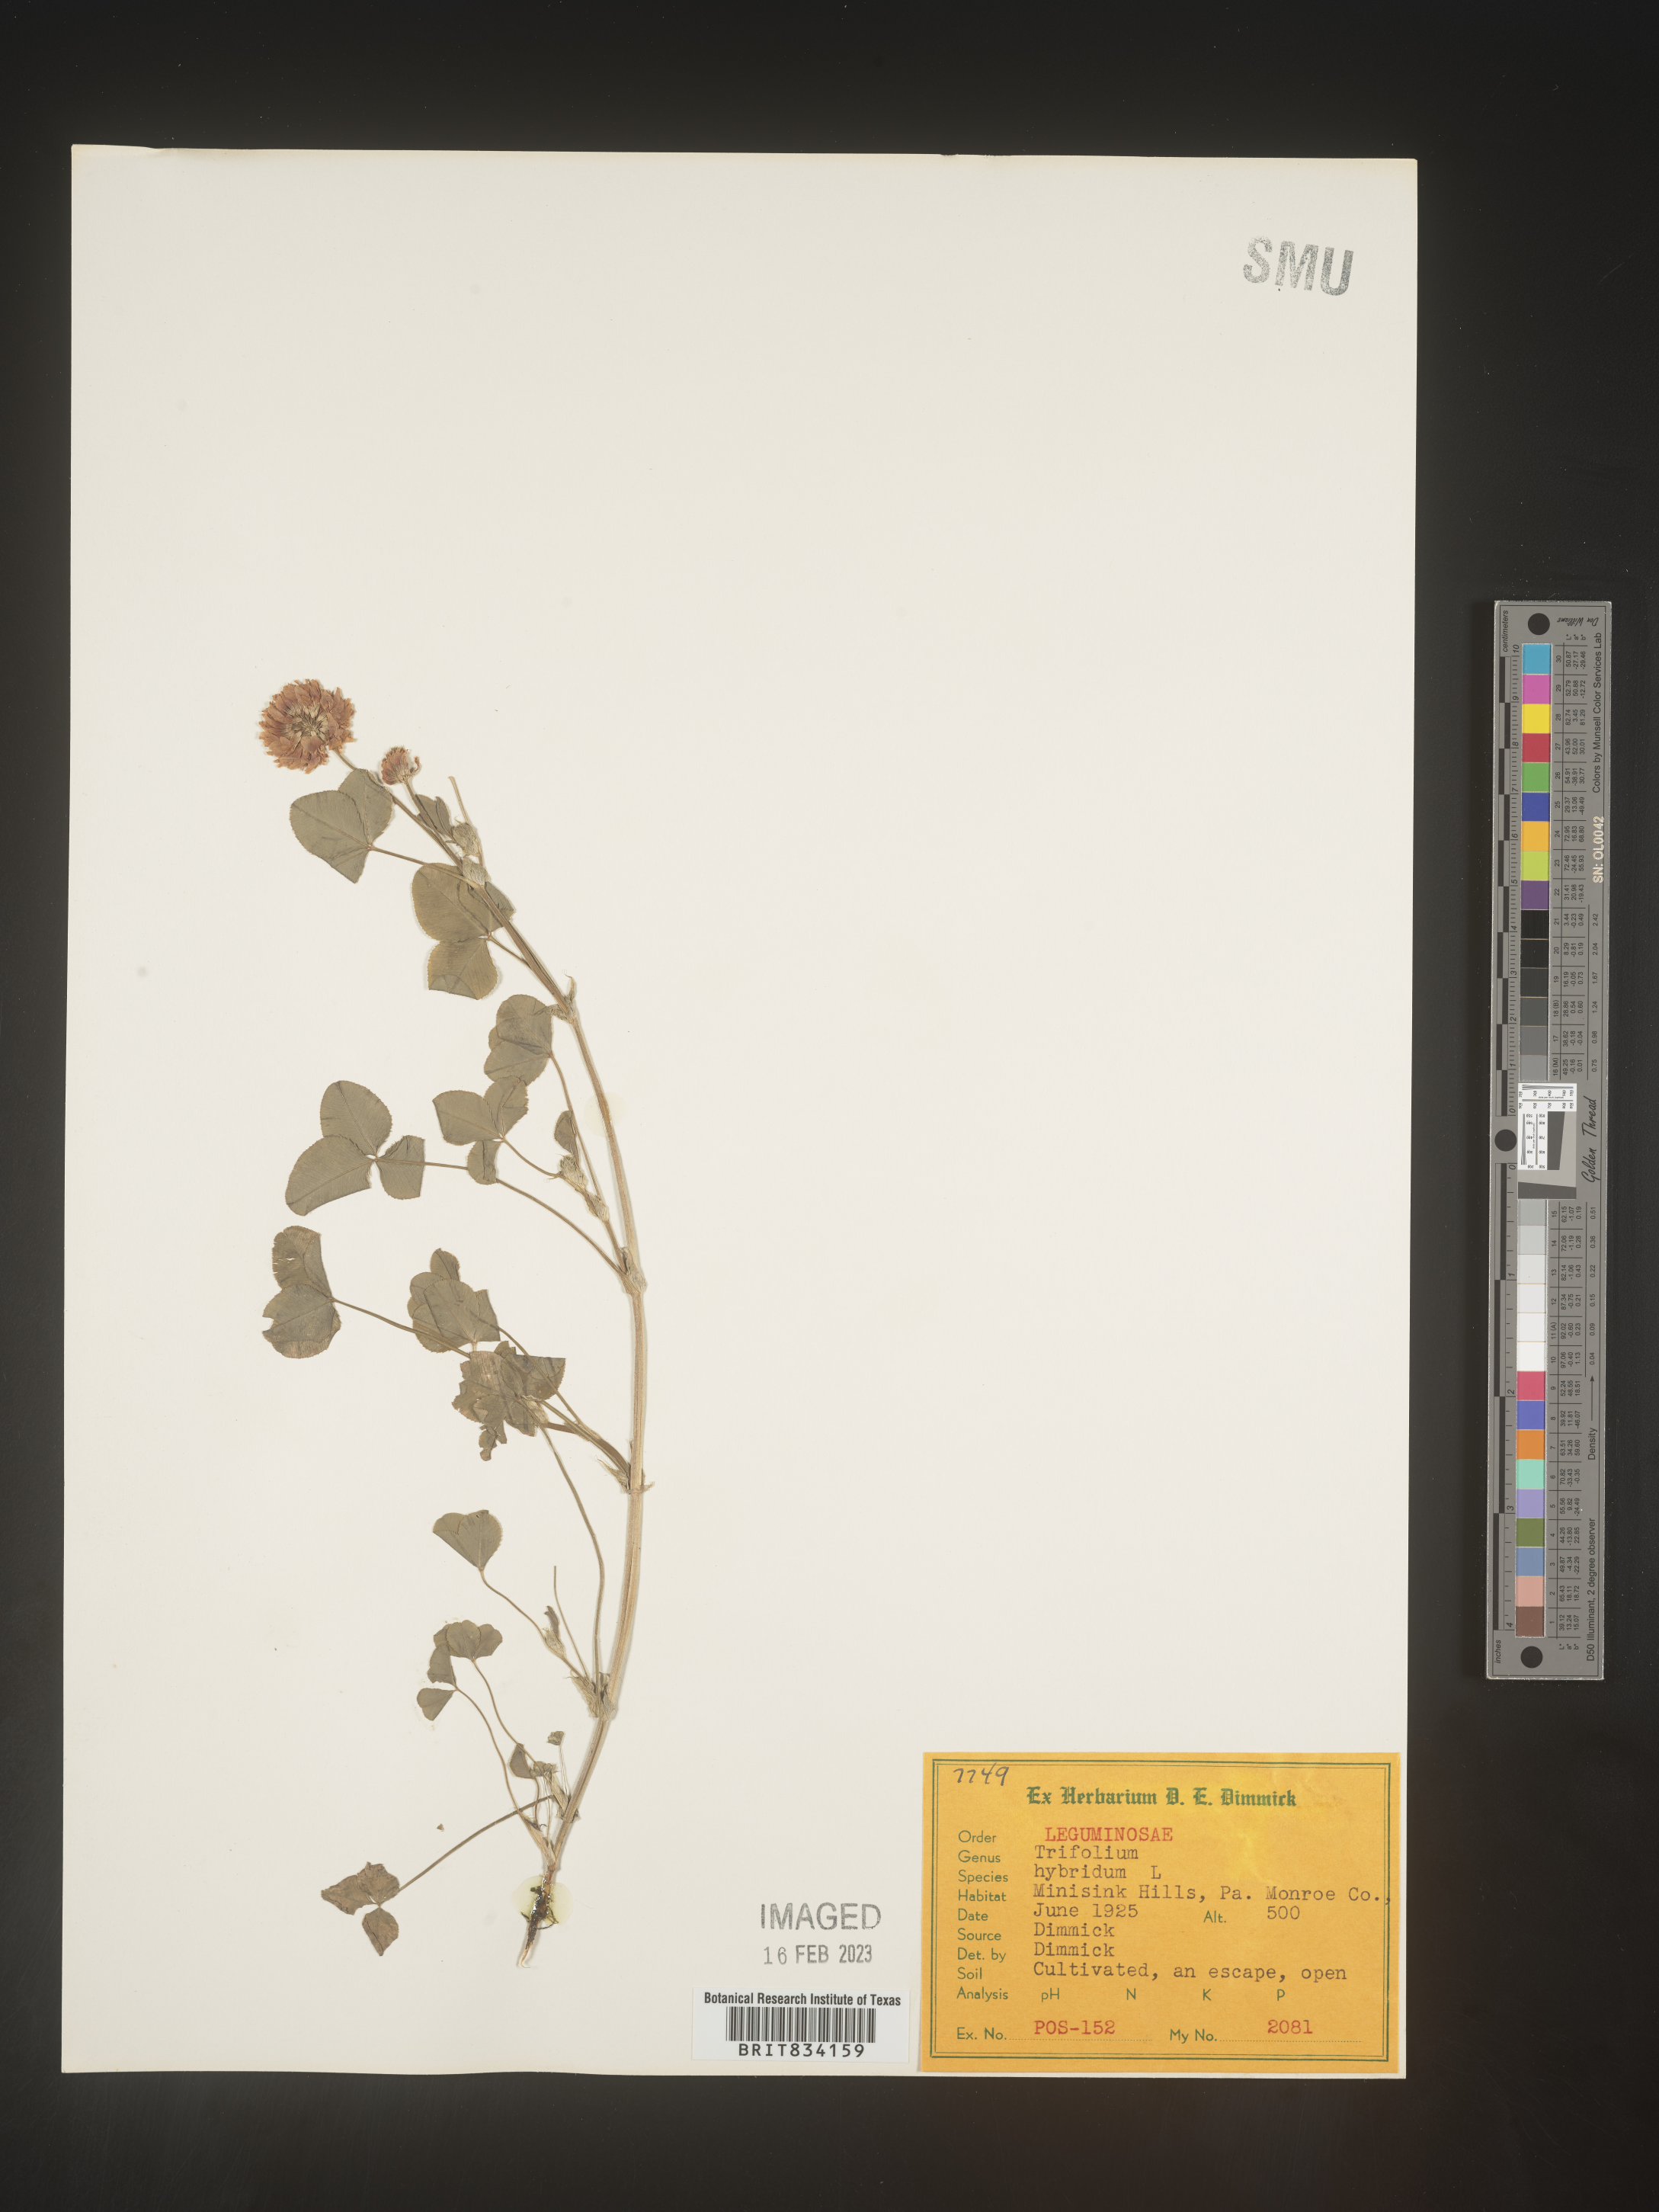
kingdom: Plantae
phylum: Tracheophyta
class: Magnoliopsida
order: Fabales
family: Fabaceae
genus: Trifolium
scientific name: Trifolium hybridum
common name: Alsike clover
